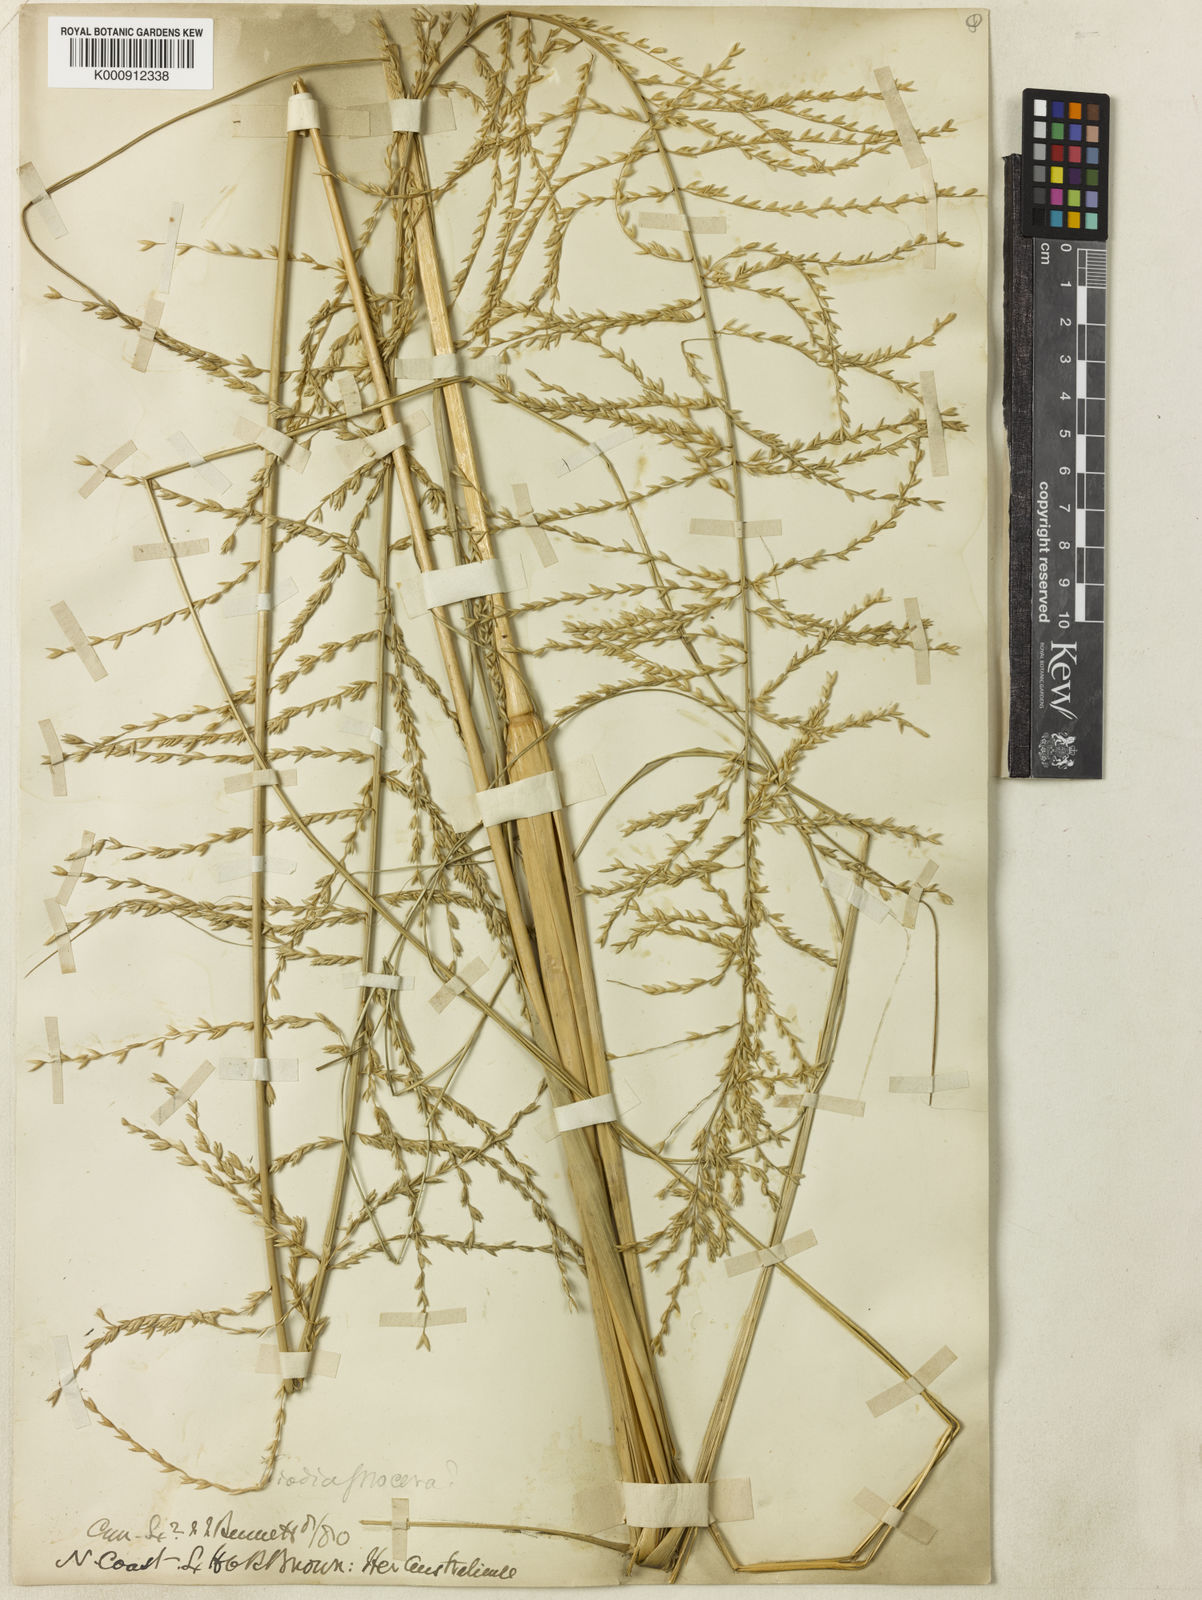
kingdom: Plantae
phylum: Tracheophyta
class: Liliopsida
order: Poales
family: Poaceae
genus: Triodia
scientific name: Triodia procera
